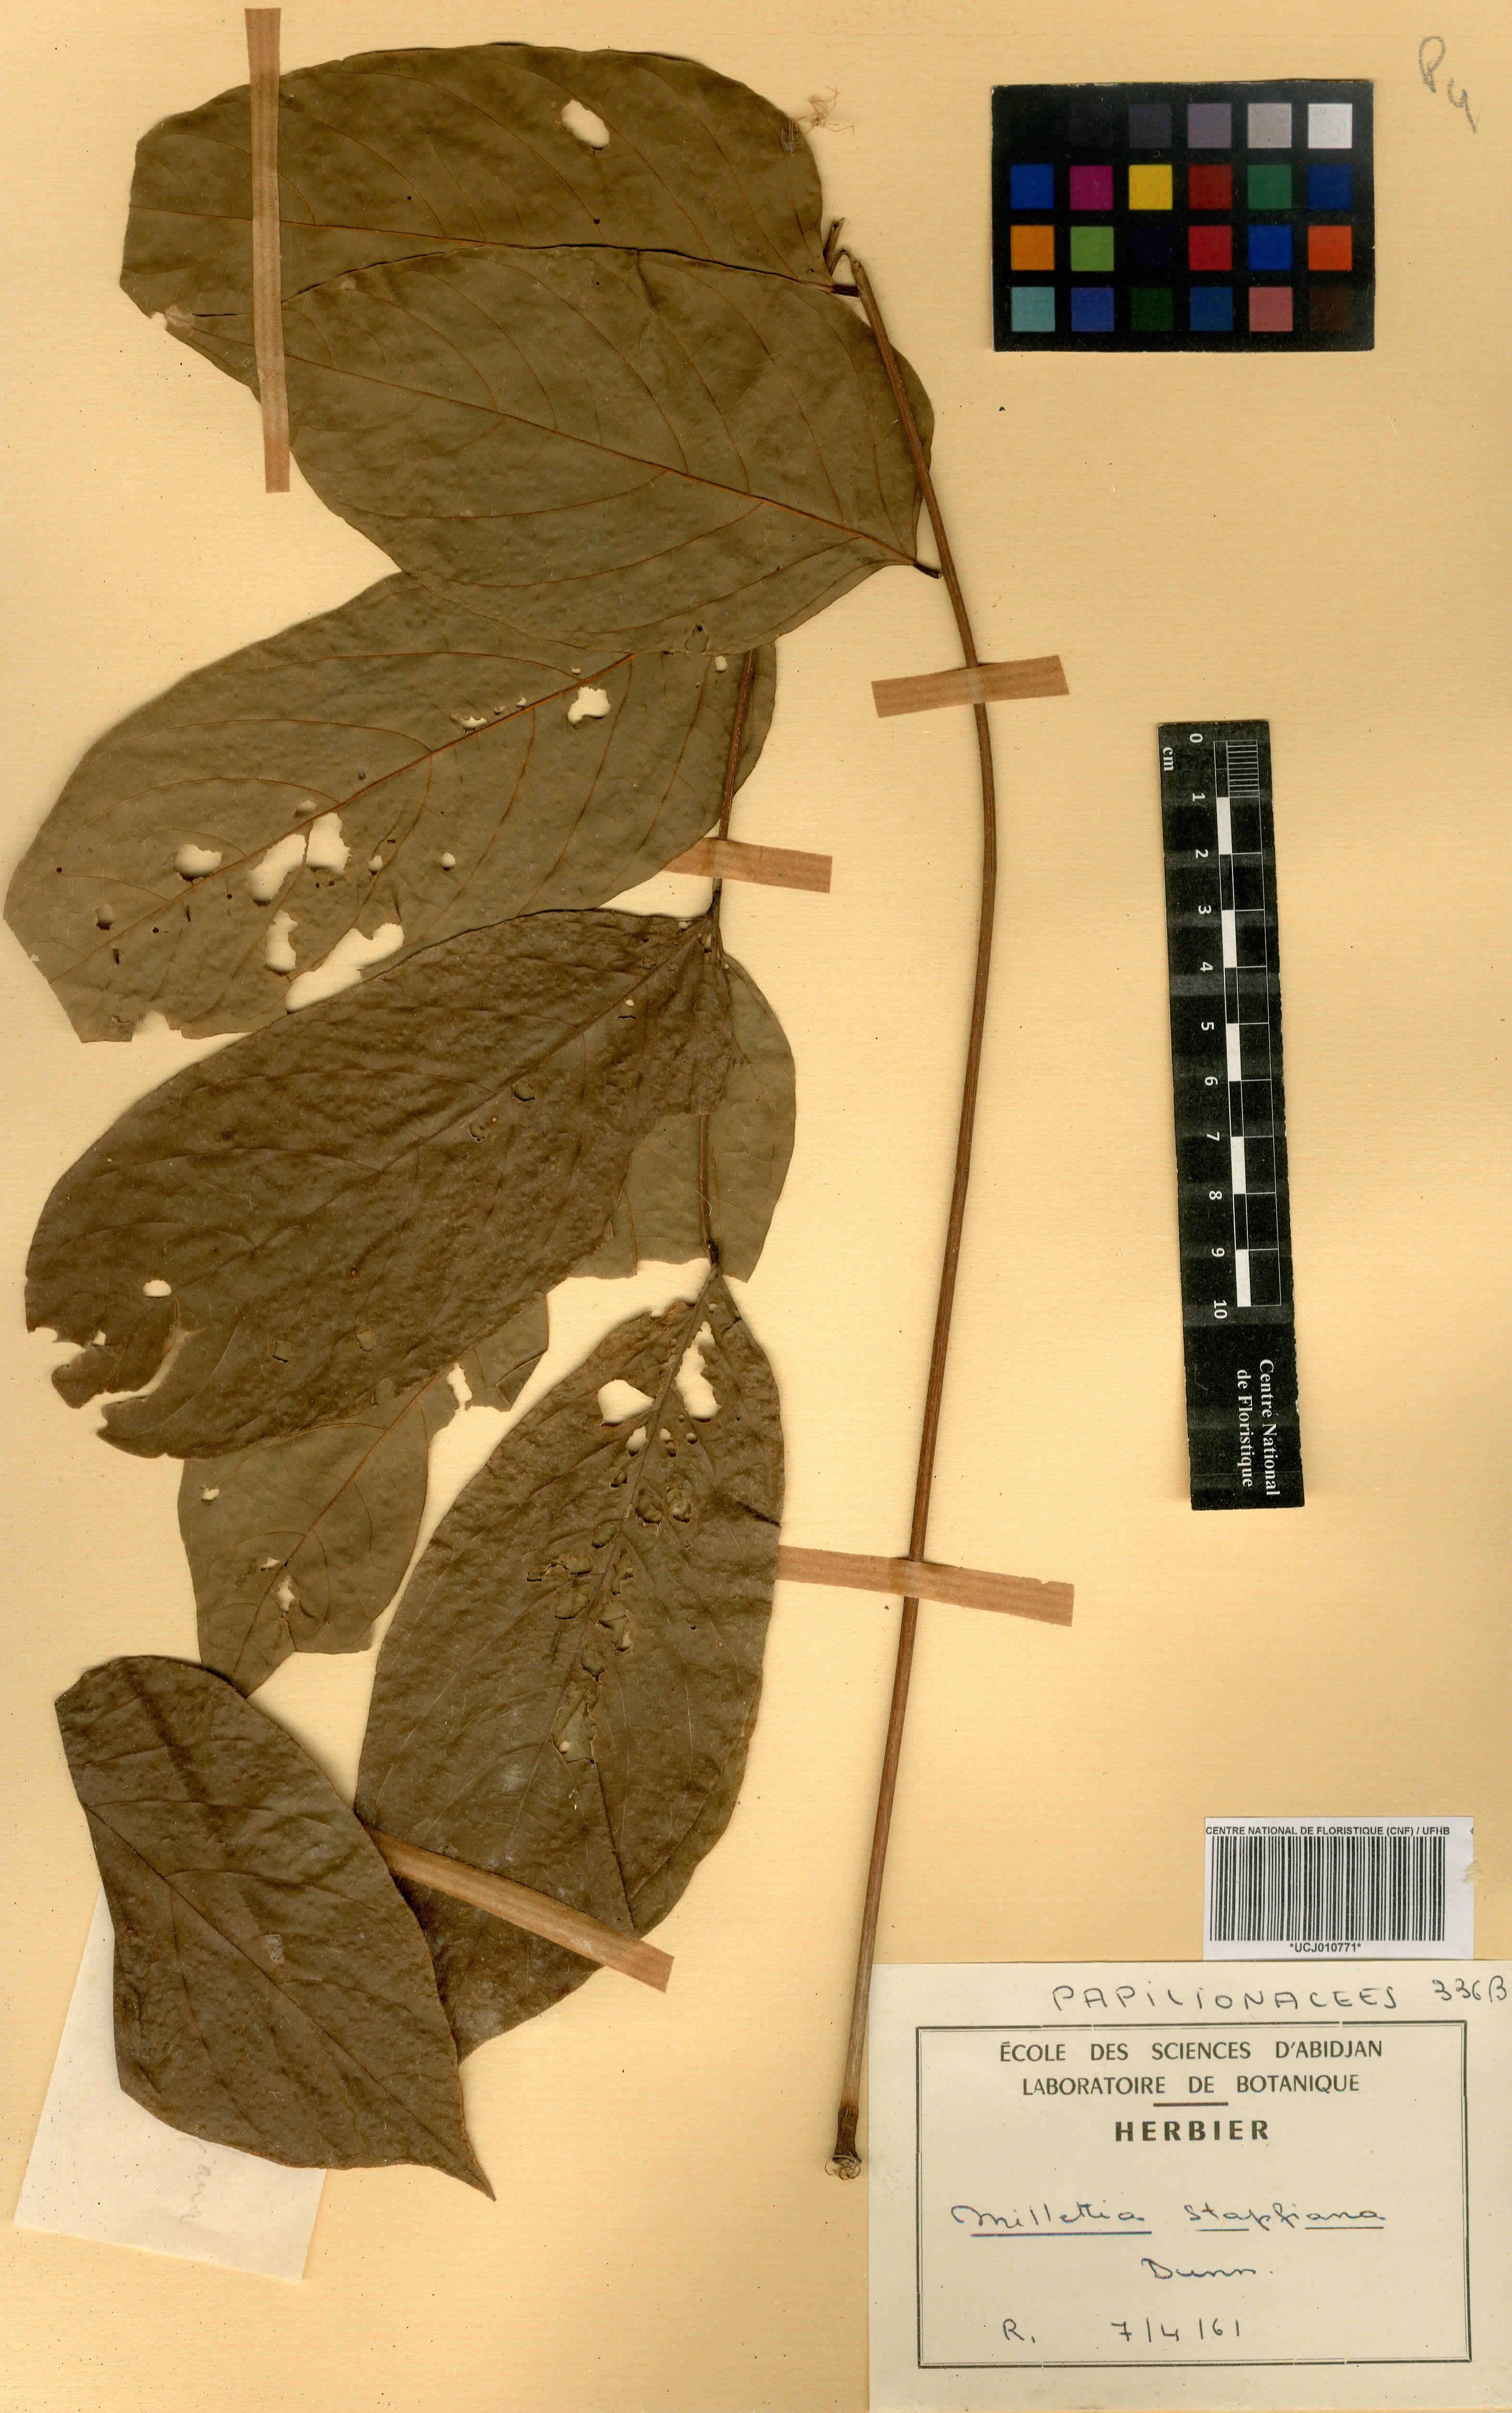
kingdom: Plantae
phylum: Tracheophyta
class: Magnoliopsida
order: Fabales
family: Fabaceae
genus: Millettia
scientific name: Millettia zechiana
